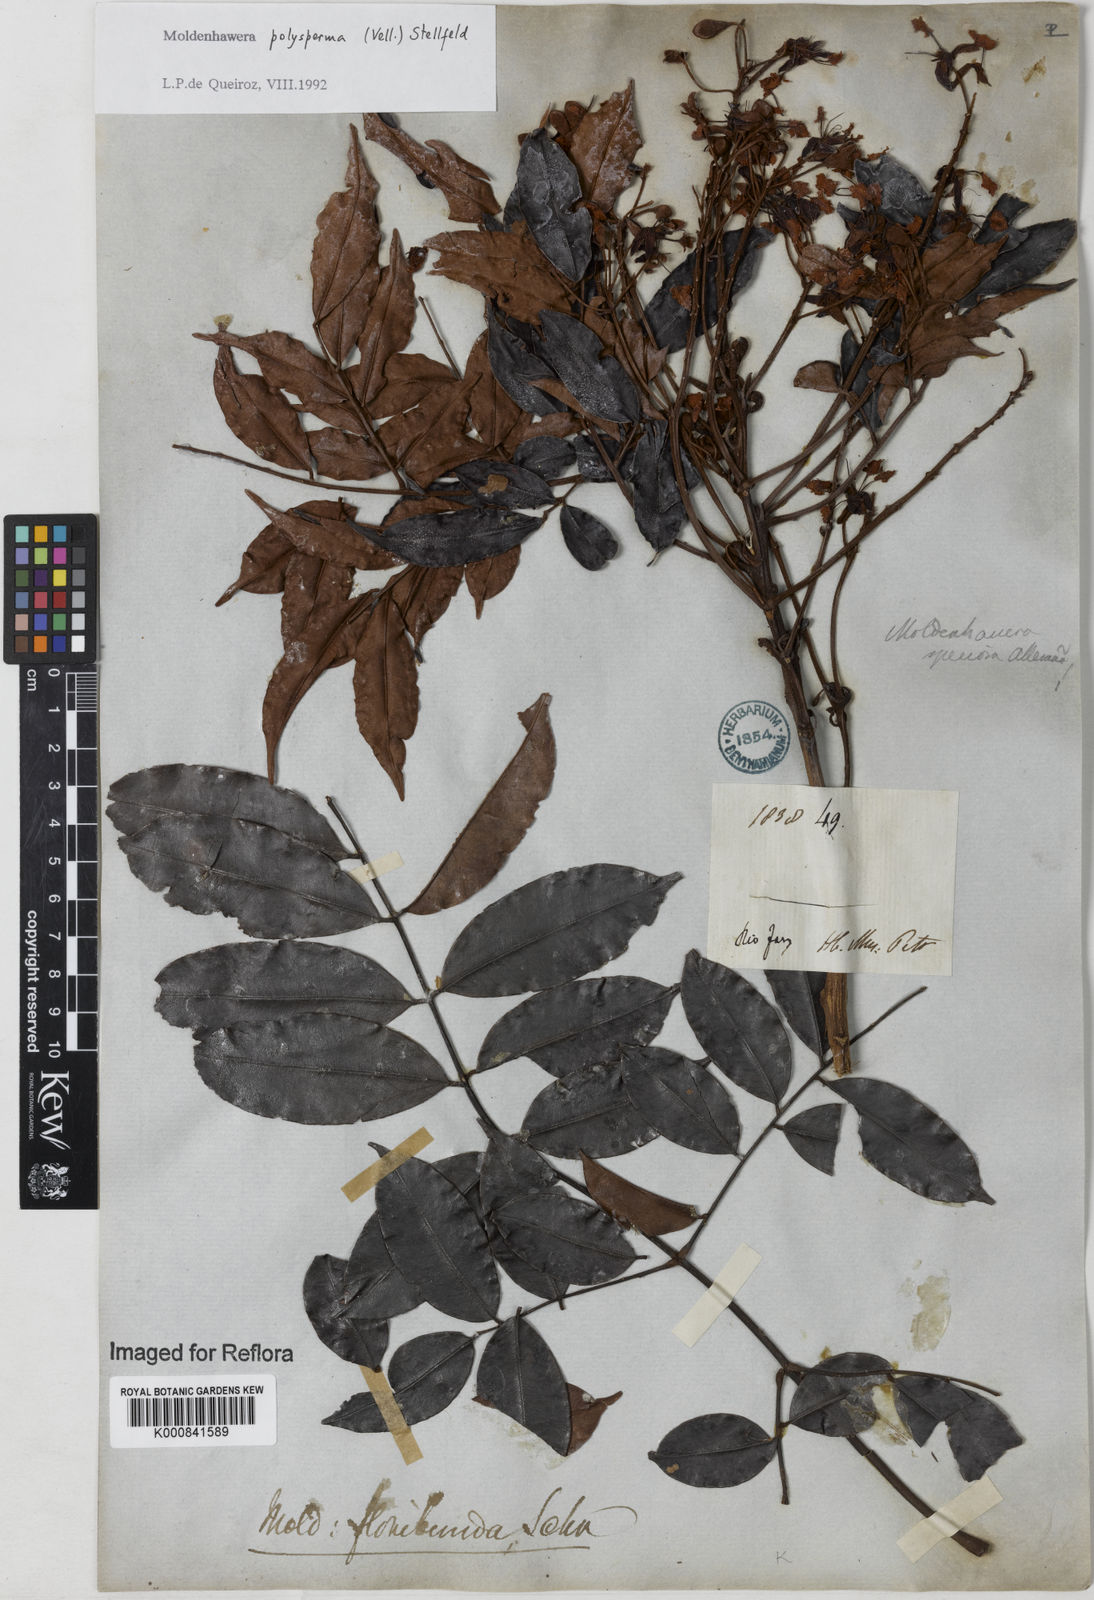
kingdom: Plantae
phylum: Tracheophyta
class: Magnoliopsida
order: Fabales
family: Fabaceae
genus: Moldenhawera
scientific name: Moldenhawera polysperma
